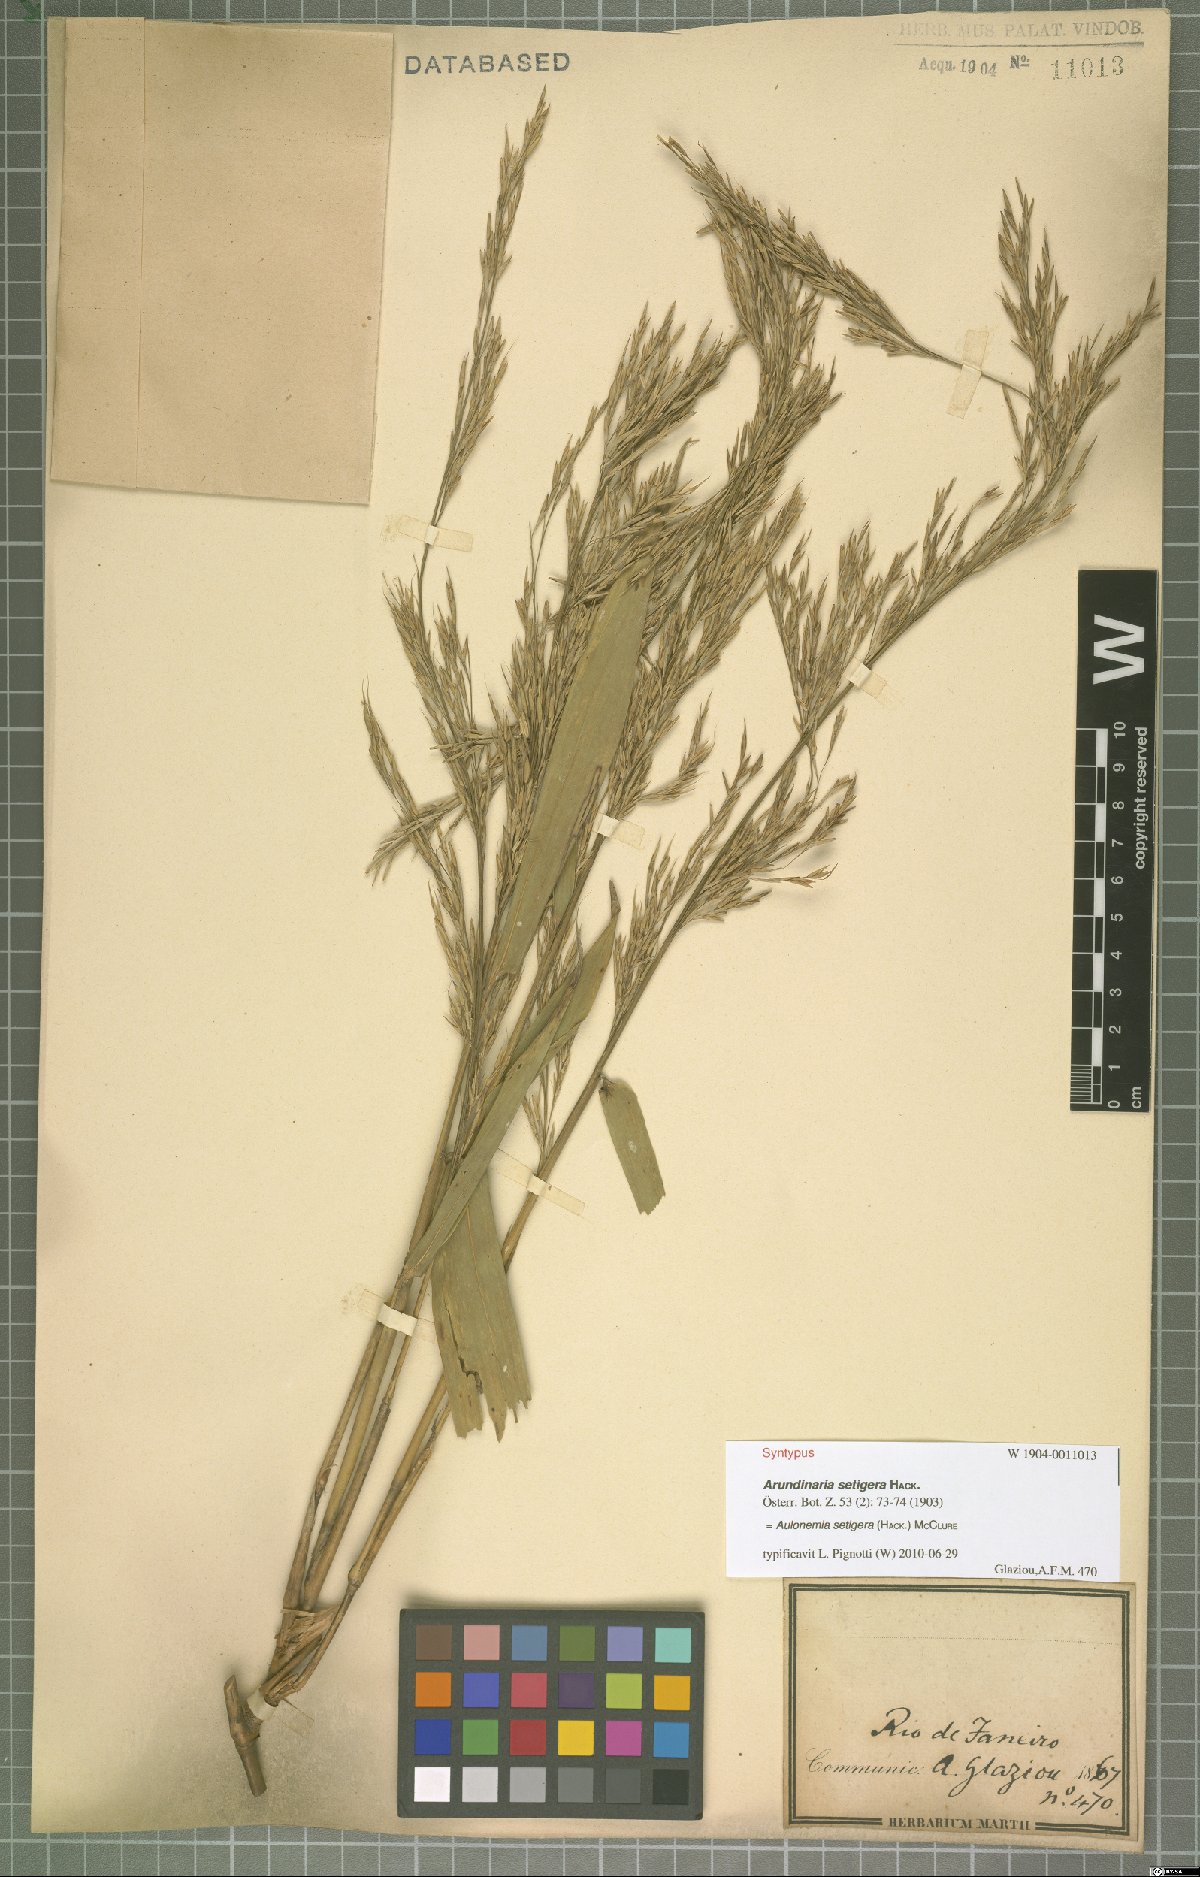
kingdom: Plantae
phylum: Tracheophyta
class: Liliopsida
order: Poales
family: Poaceae
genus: Aulonemia
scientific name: Aulonemia setigera
